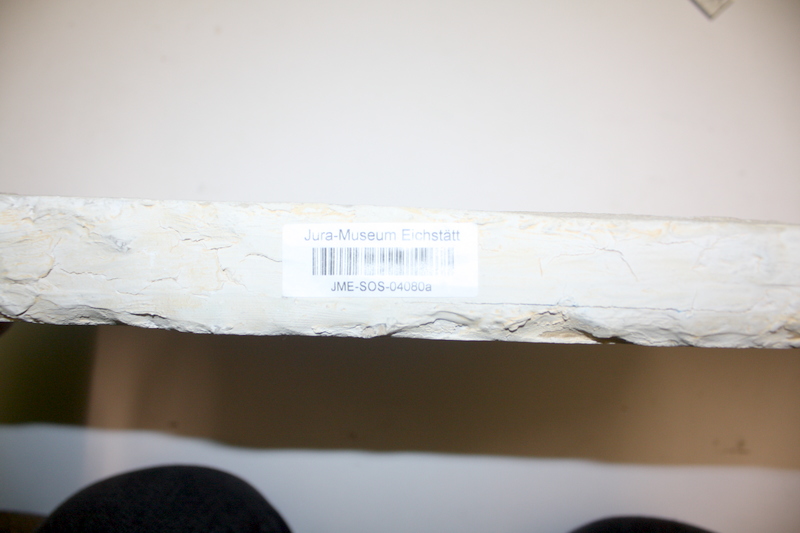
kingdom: Animalia
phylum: Chordata
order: Amiiformes
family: Caturidae
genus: Caturus
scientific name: Caturus furcatus
